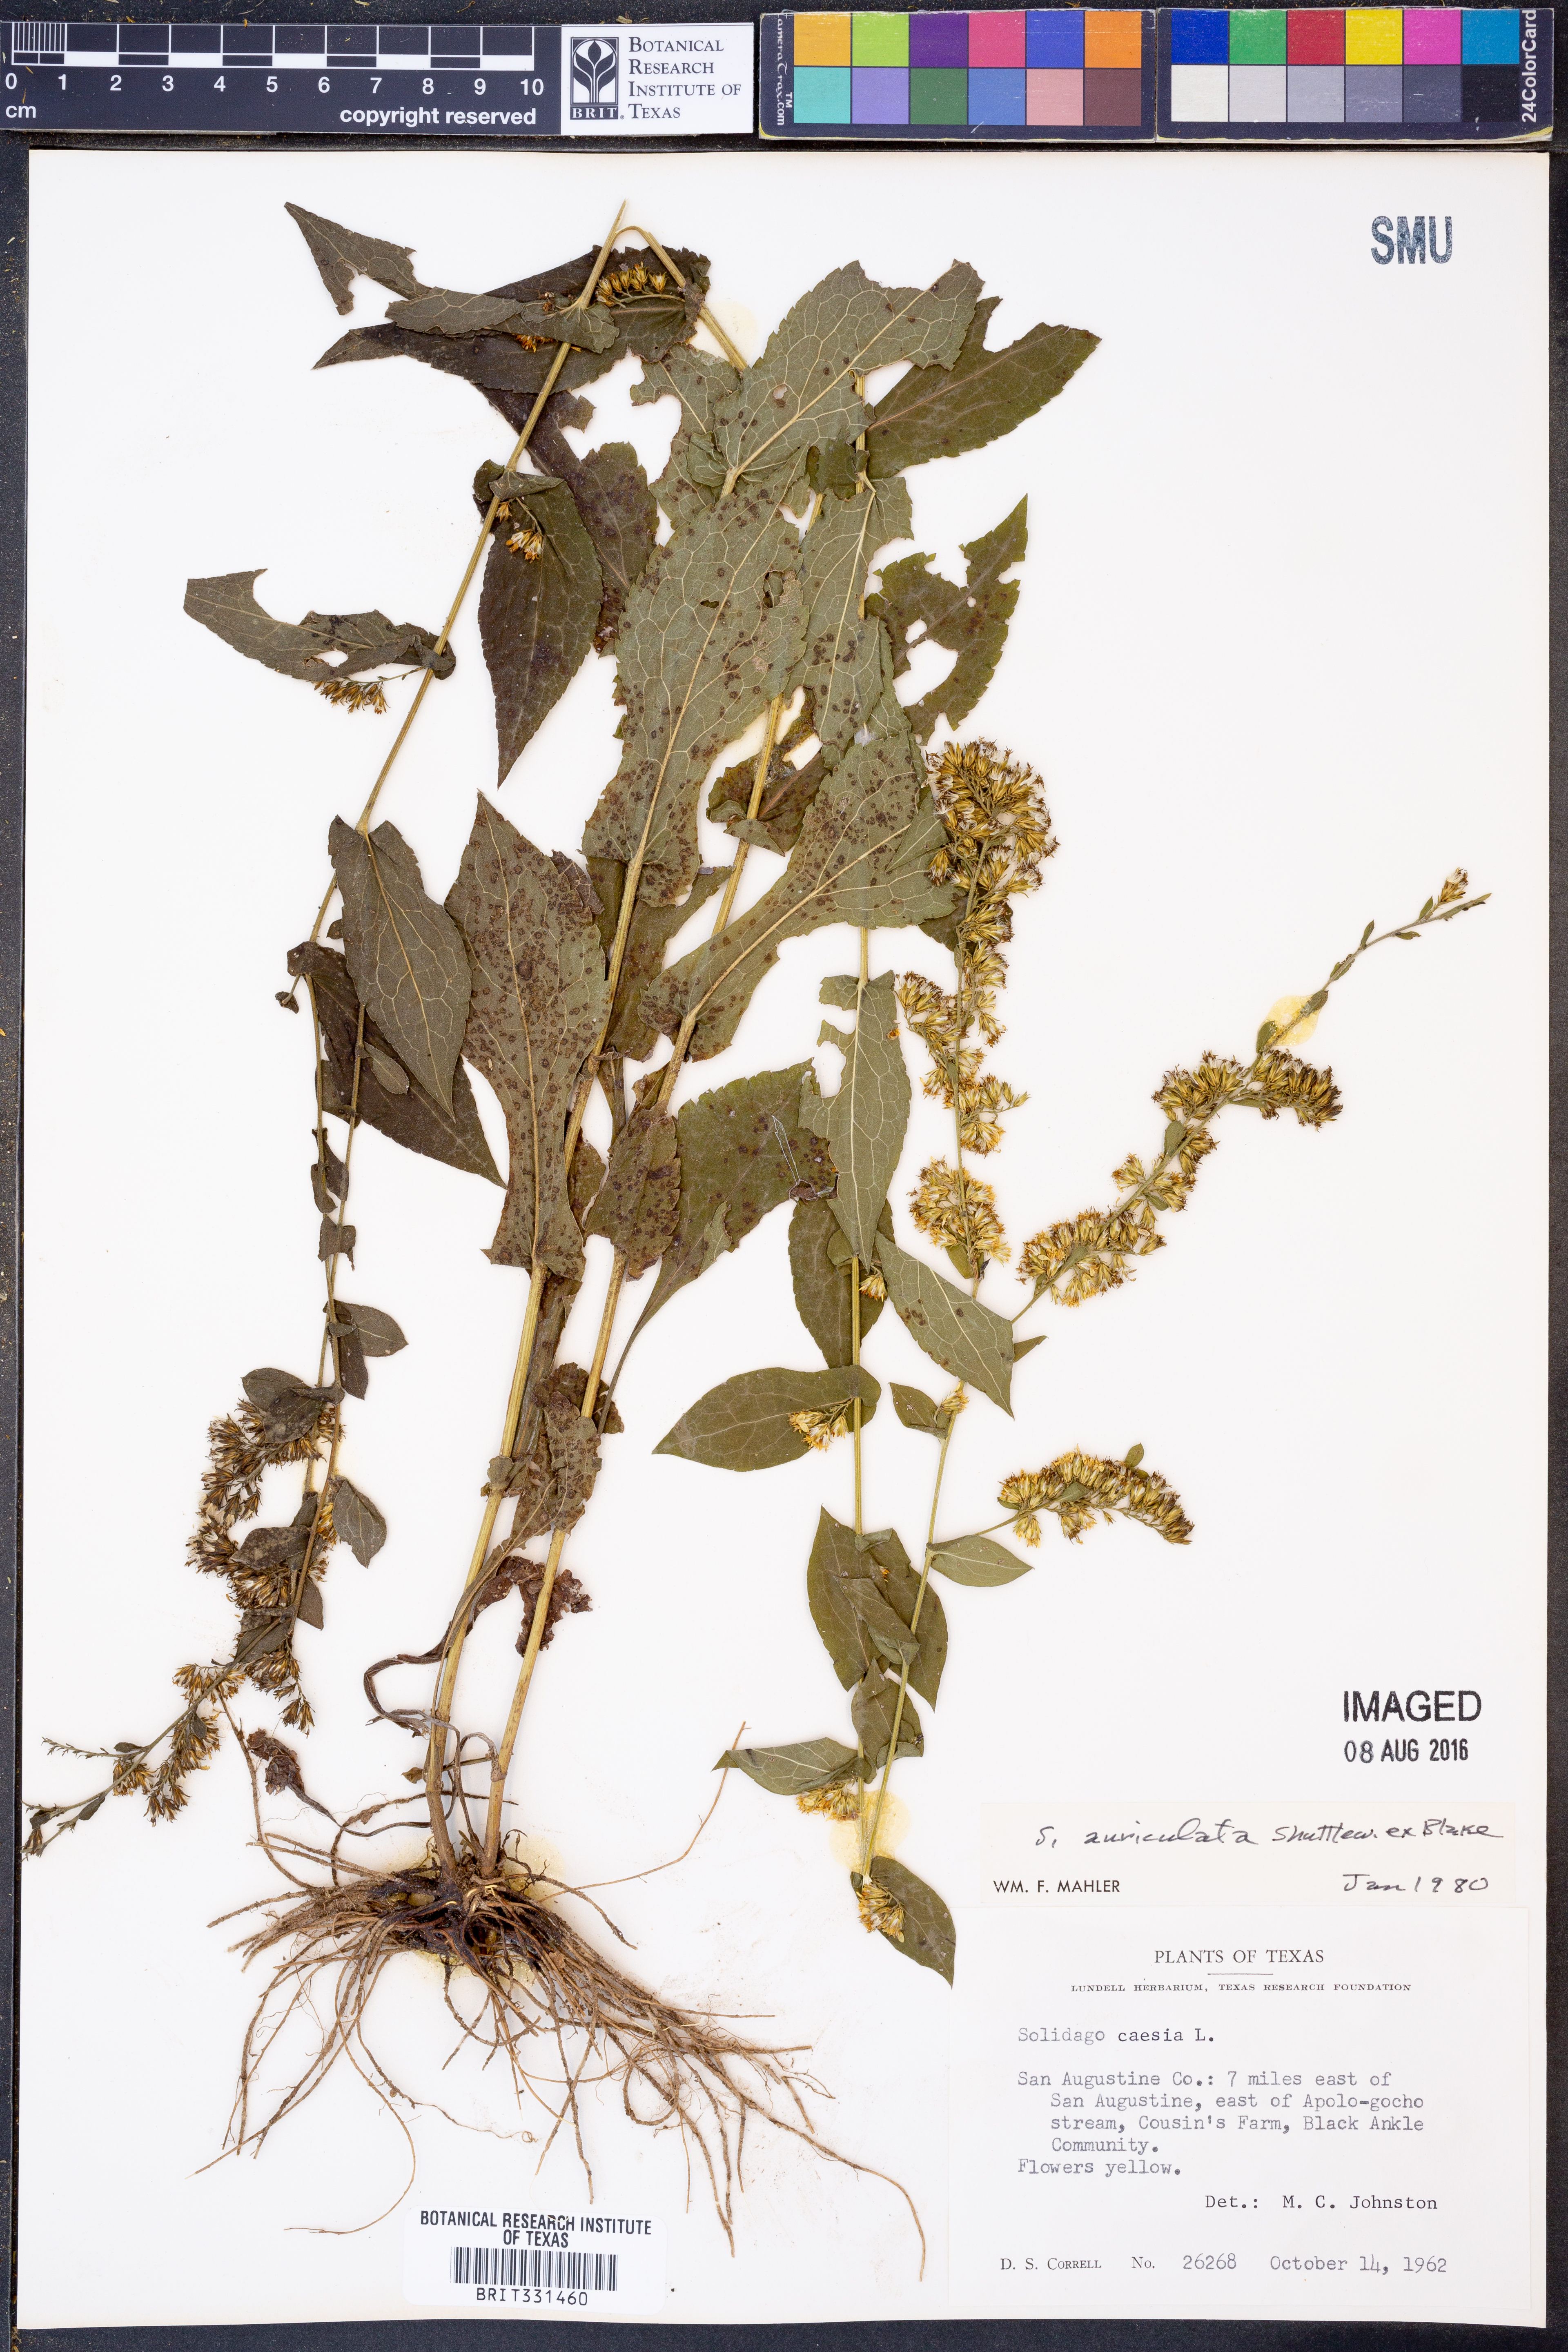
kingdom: Plantae
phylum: Tracheophyta
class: Magnoliopsida
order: Asterales
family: Asteraceae
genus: Solidago
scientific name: Solidago auriculata
